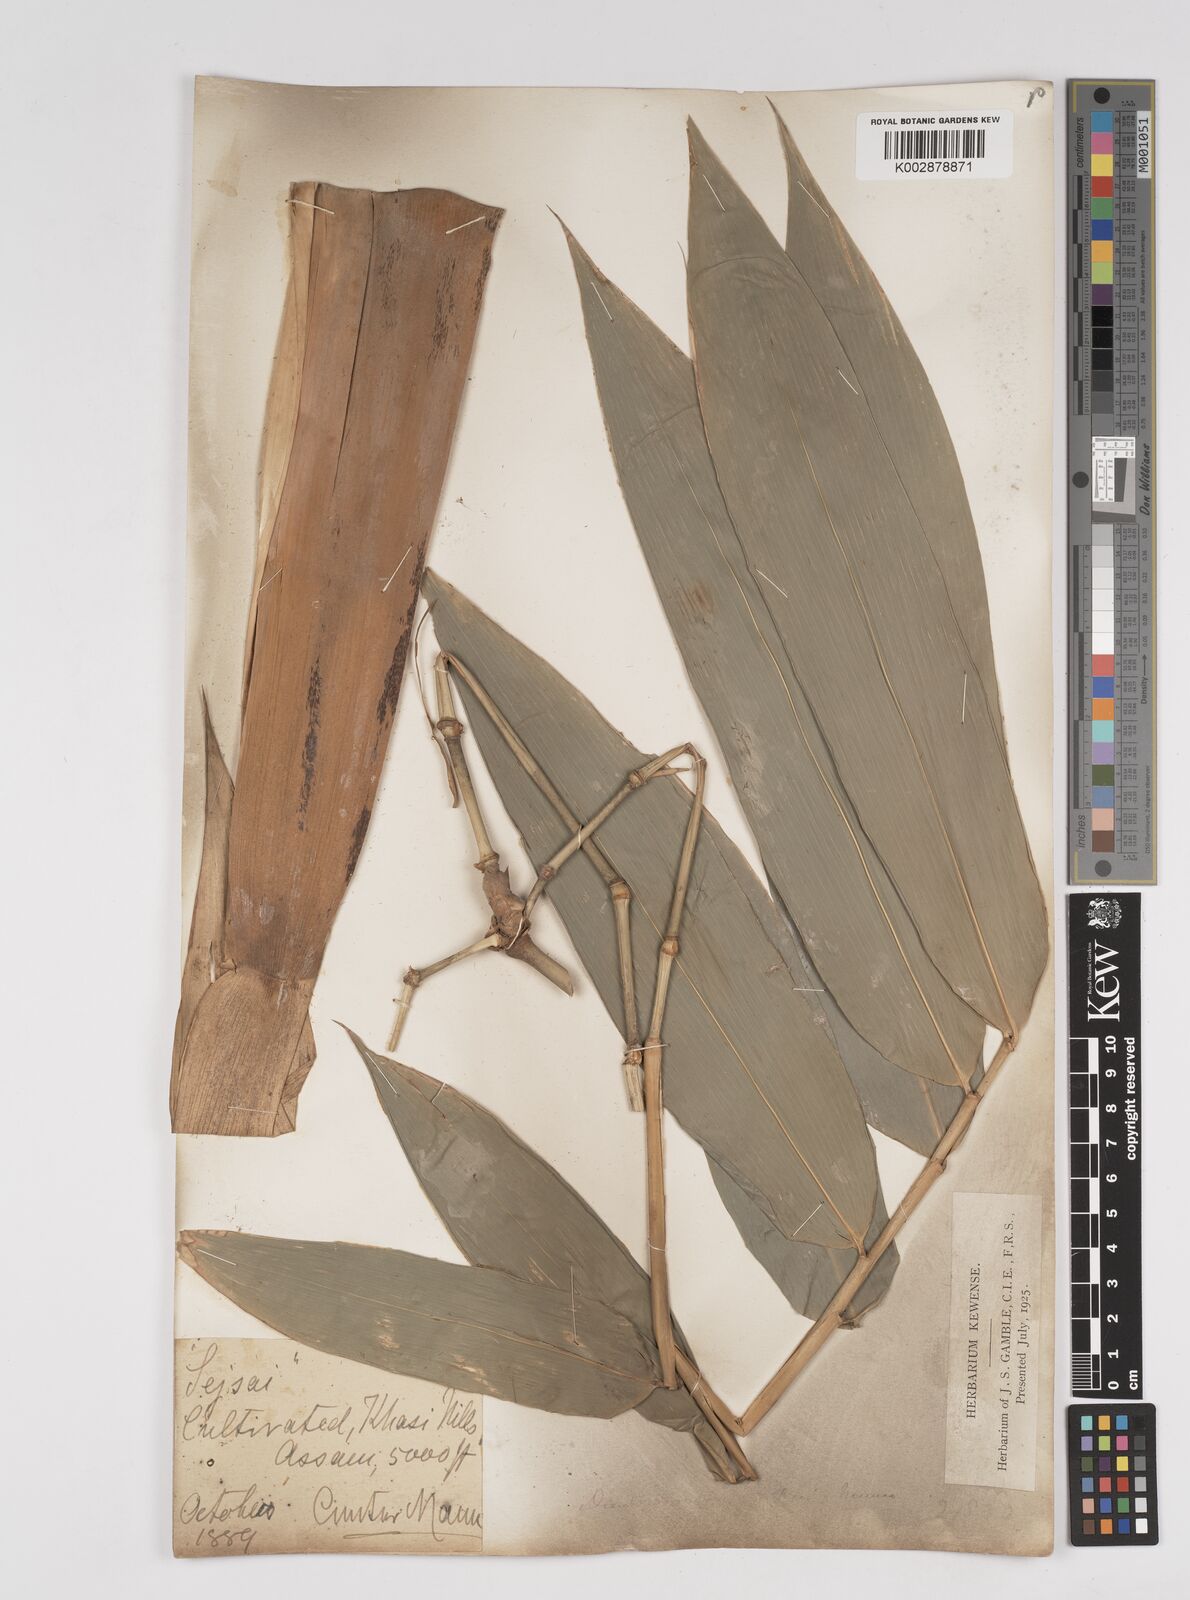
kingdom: Plantae
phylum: Tracheophyta
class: Liliopsida
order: Poales
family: Poaceae
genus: Dendrocalamus
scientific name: Dendrocalamus hookeri
